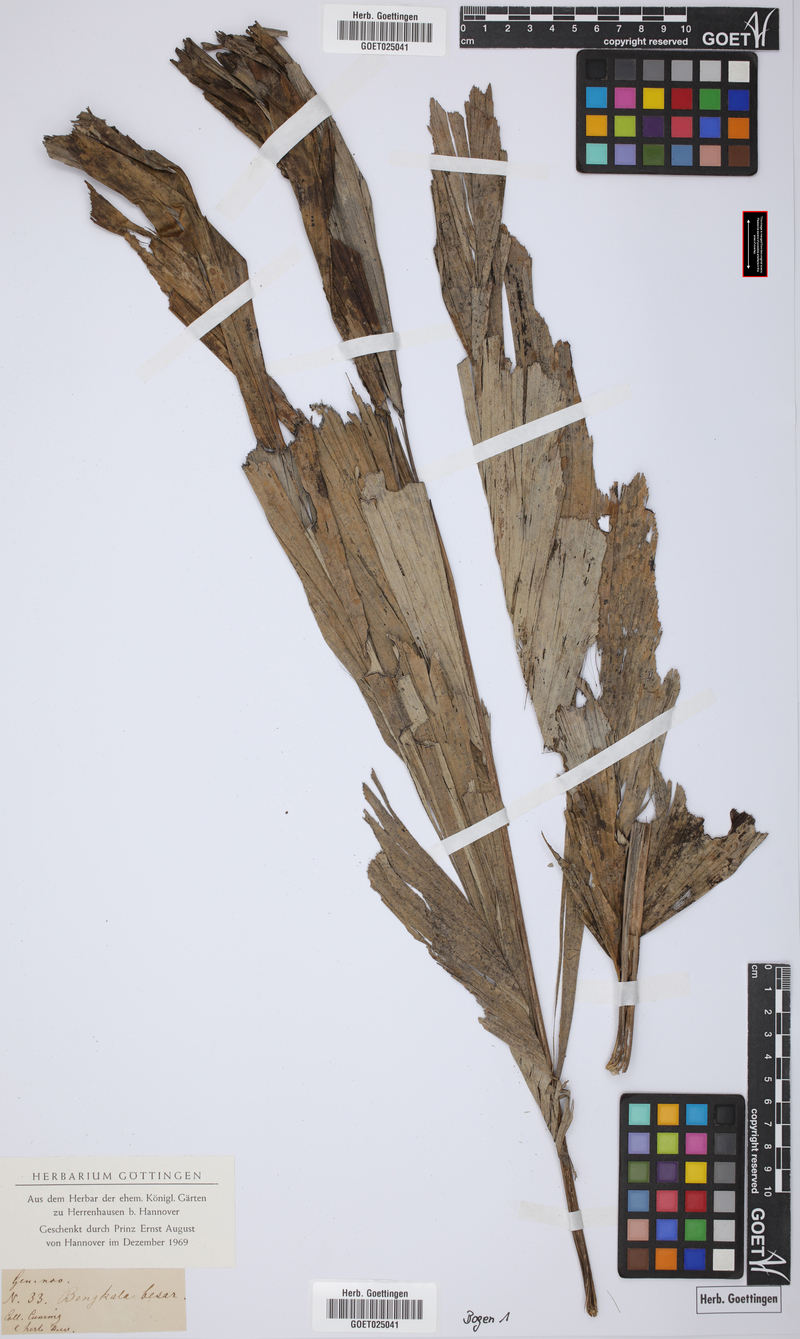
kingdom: Plantae
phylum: Tracheophyta
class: Liliopsida
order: Arecales
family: Arecaceae
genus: Arenga
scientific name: Arenga
